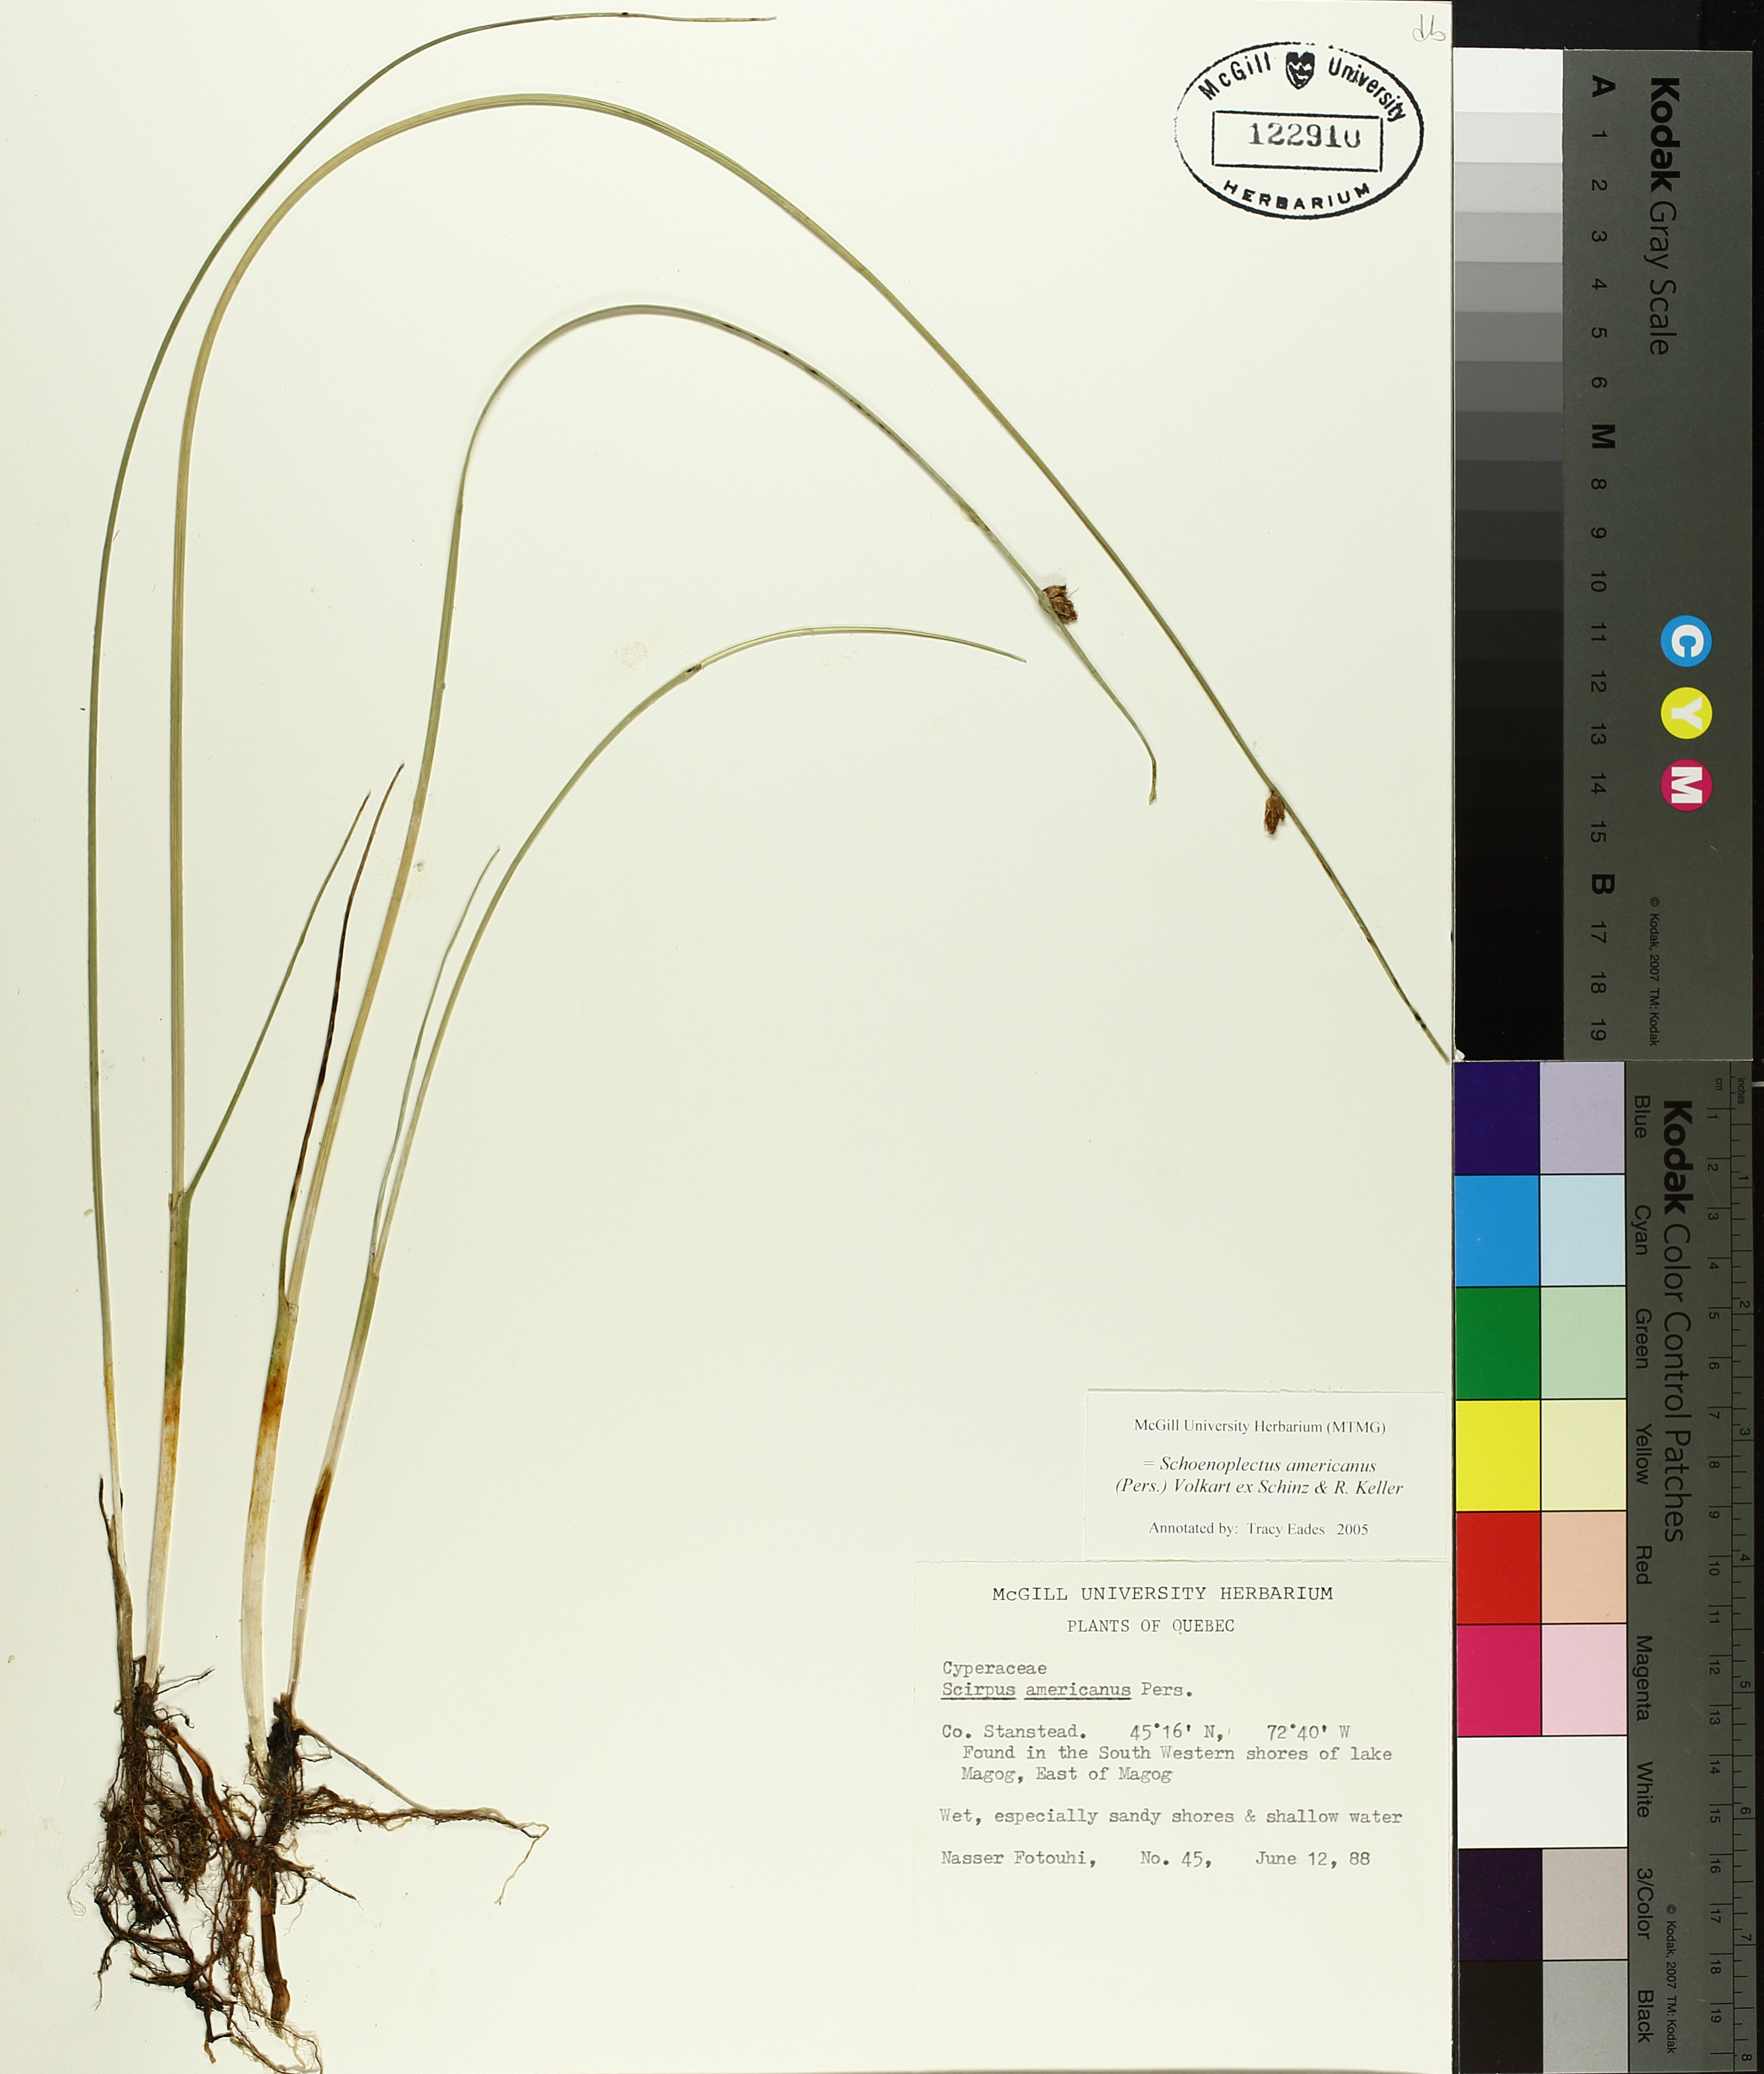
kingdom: Plantae
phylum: Tracheophyta
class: Liliopsida
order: Poales
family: Cyperaceae
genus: Schoenoplectus
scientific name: Schoenoplectus americanus
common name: American three-square bulrush
